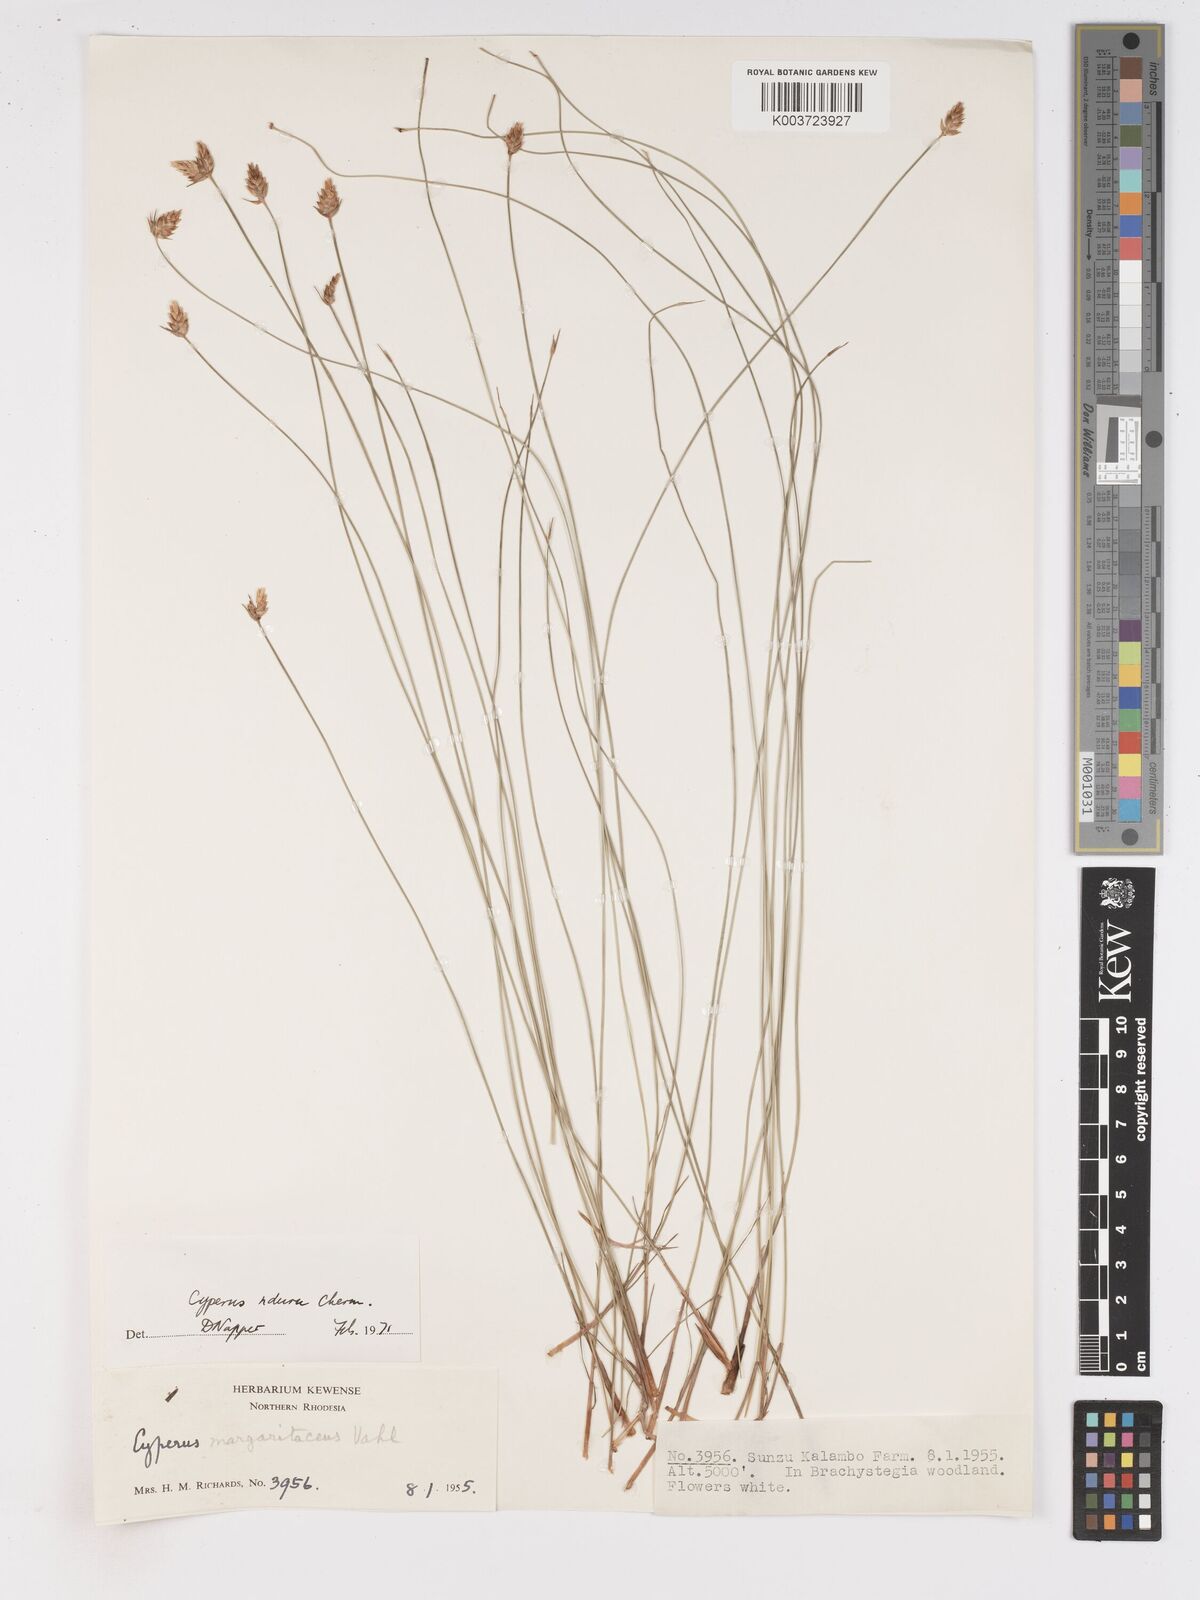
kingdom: Plantae
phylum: Tracheophyta
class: Liliopsida
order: Poales
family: Cyperaceae
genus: Cyperus
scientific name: Cyperus nduru
